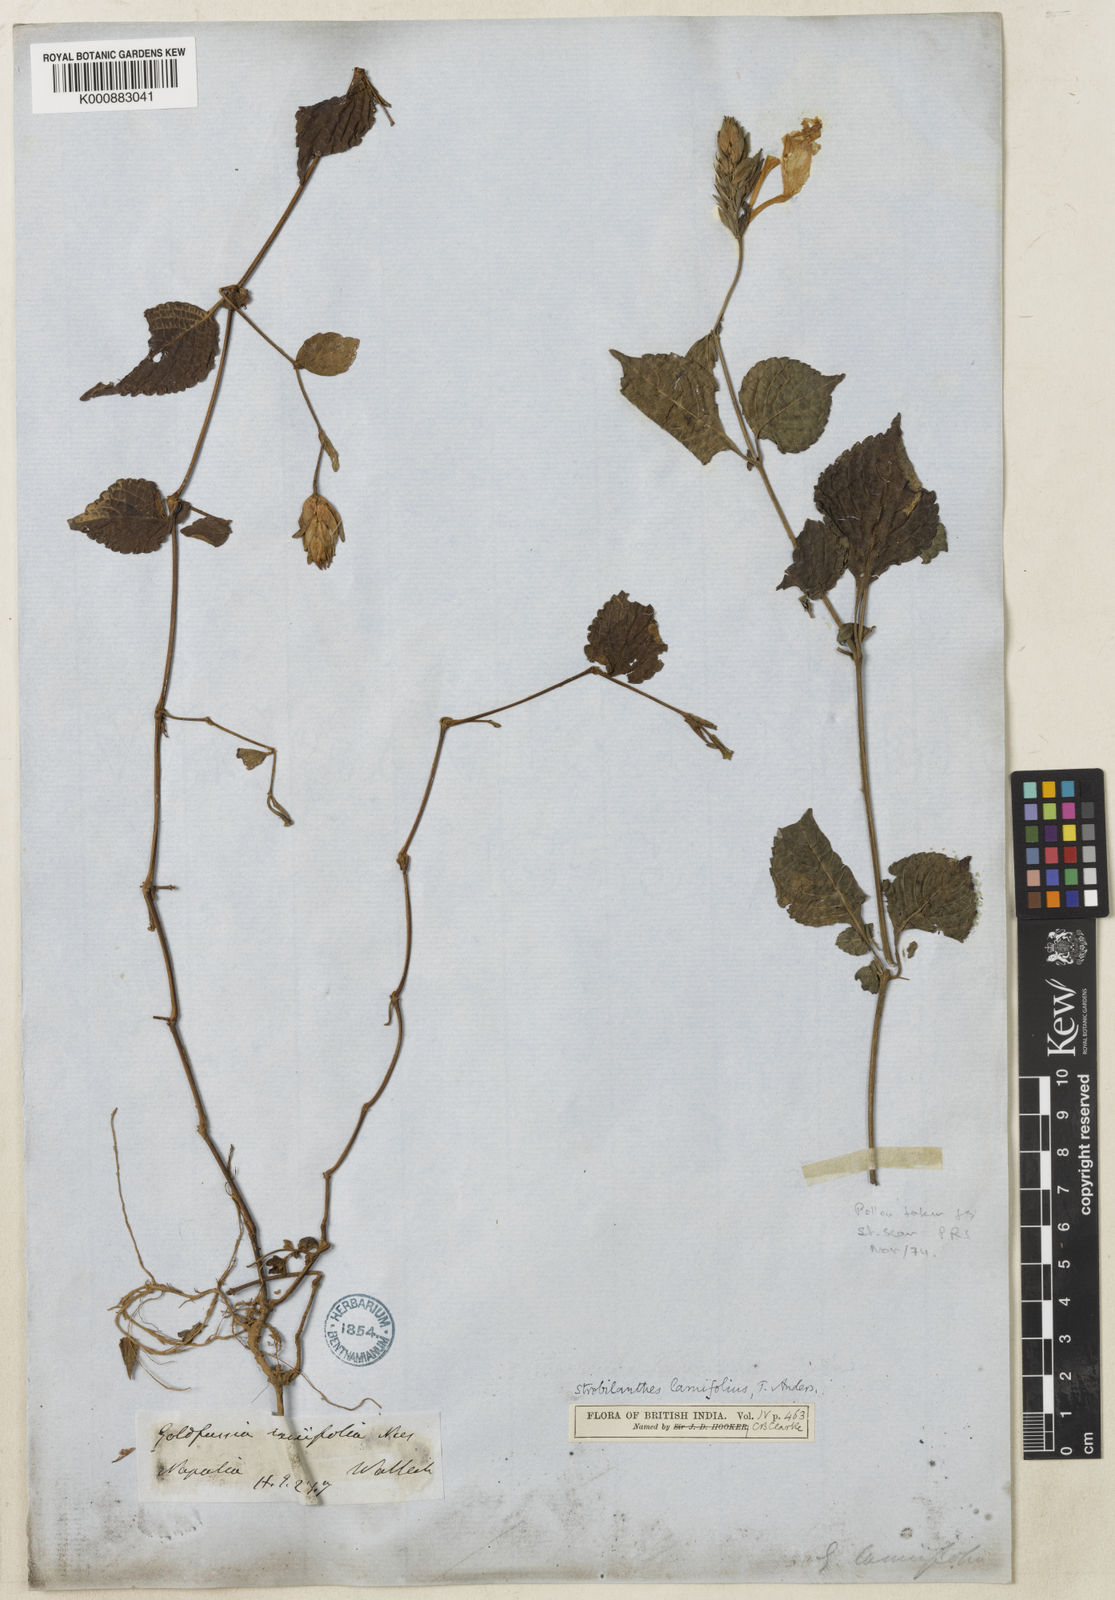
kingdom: Plantae
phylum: Tracheophyta
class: Magnoliopsida
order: Lamiales
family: Acanthaceae
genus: Strobilanthes
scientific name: Strobilanthes lamiifolia
